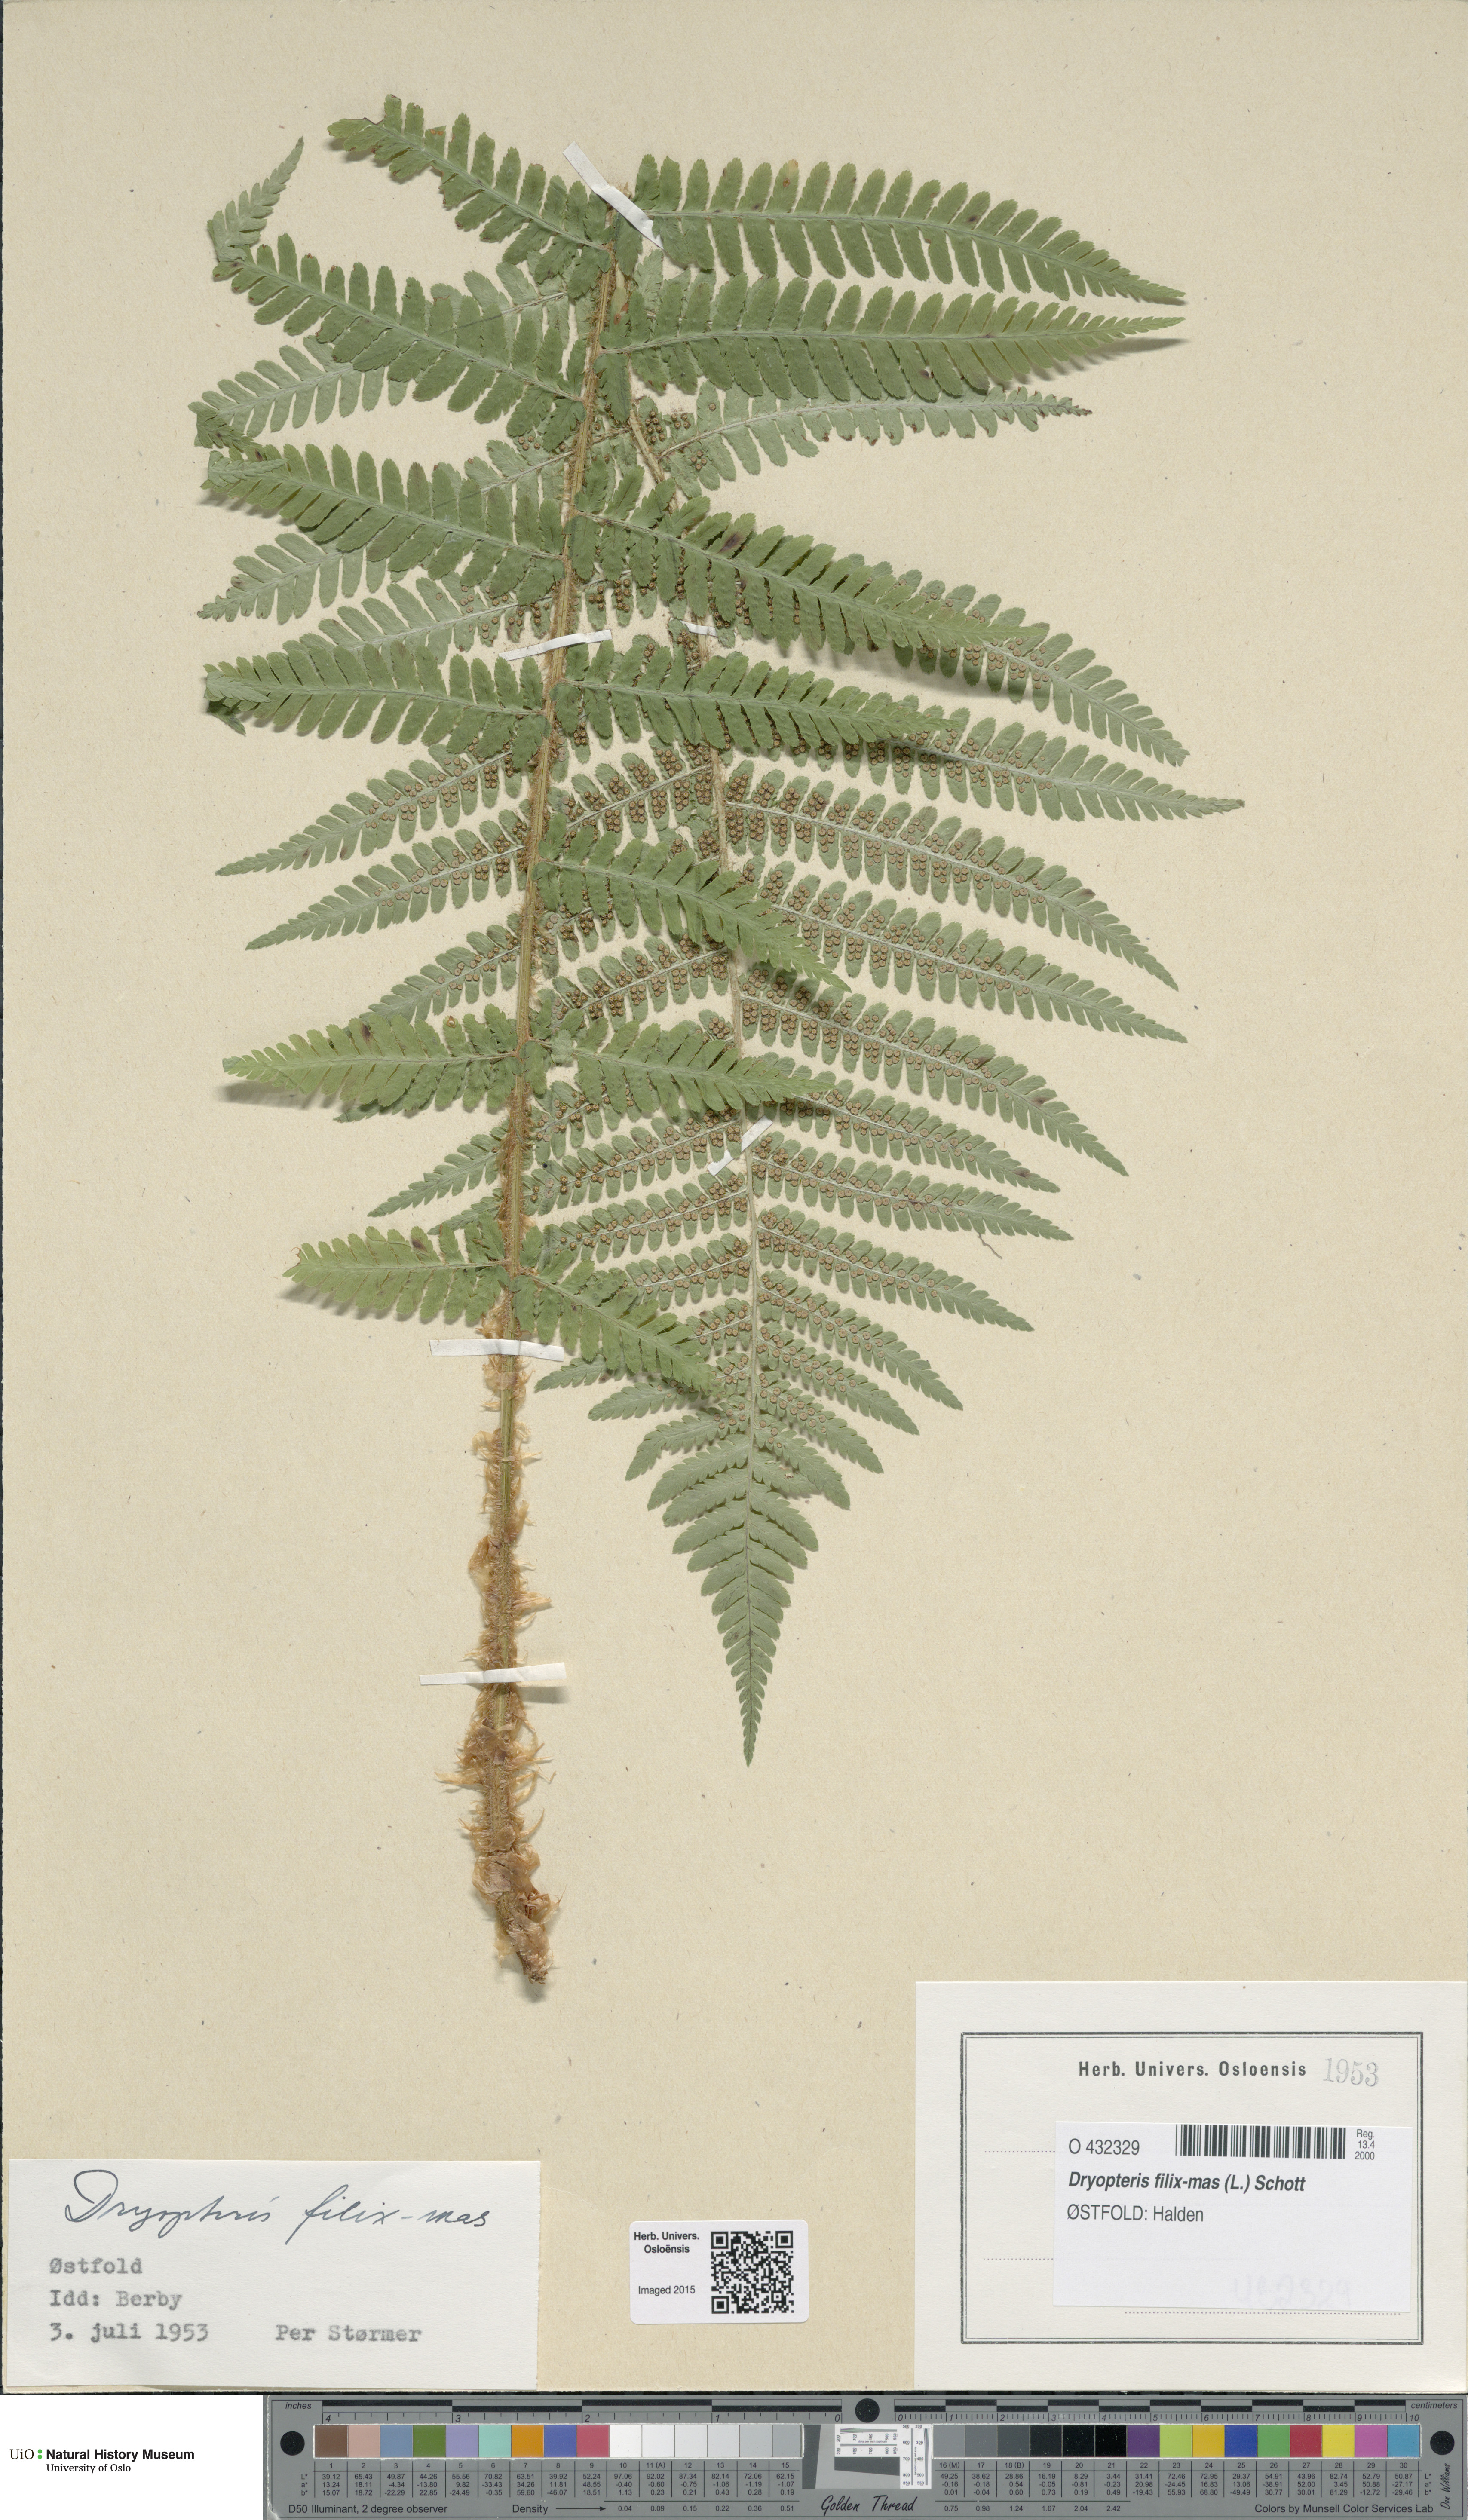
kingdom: Plantae
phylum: Tracheophyta
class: Polypodiopsida
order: Polypodiales
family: Dryopteridaceae
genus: Dryopteris
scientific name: Dryopteris filix-mas
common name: Male fern
